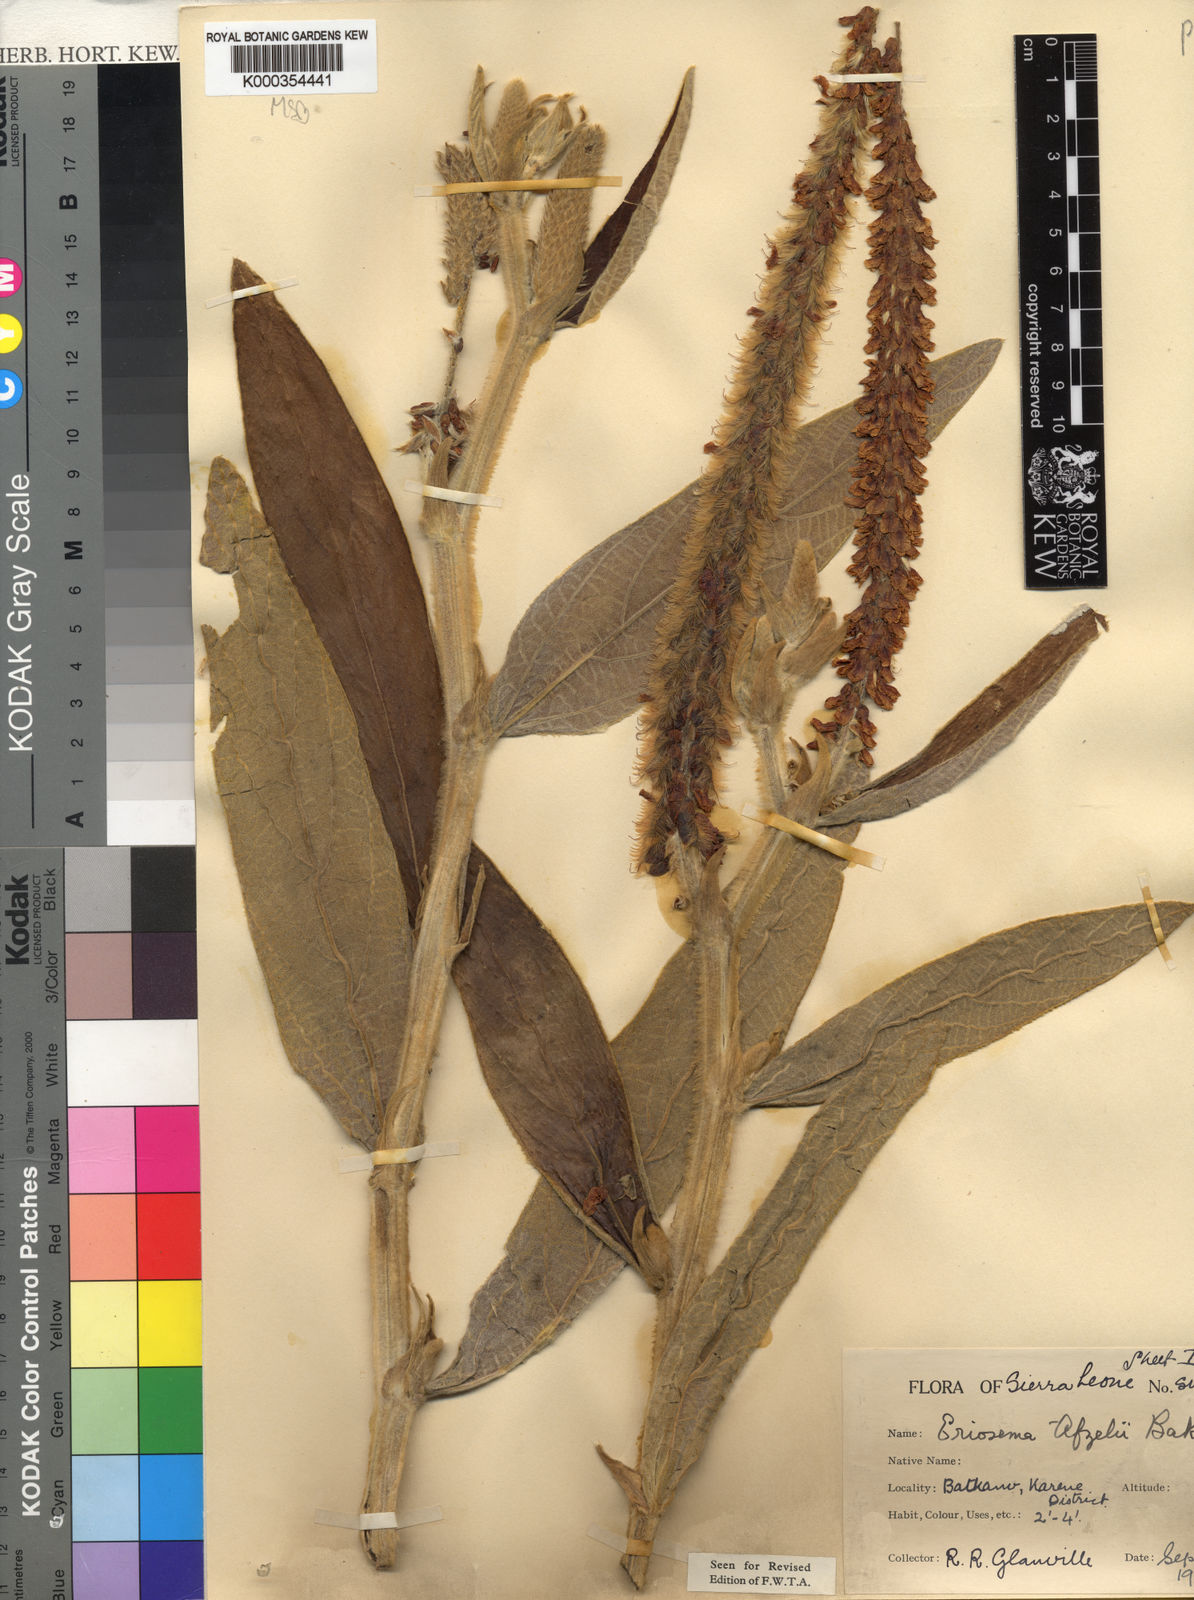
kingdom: Plantae
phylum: Tracheophyta
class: Magnoliopsida
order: Fabales
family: Fabaceae
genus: Eriosema
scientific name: Eriosema afzelii
